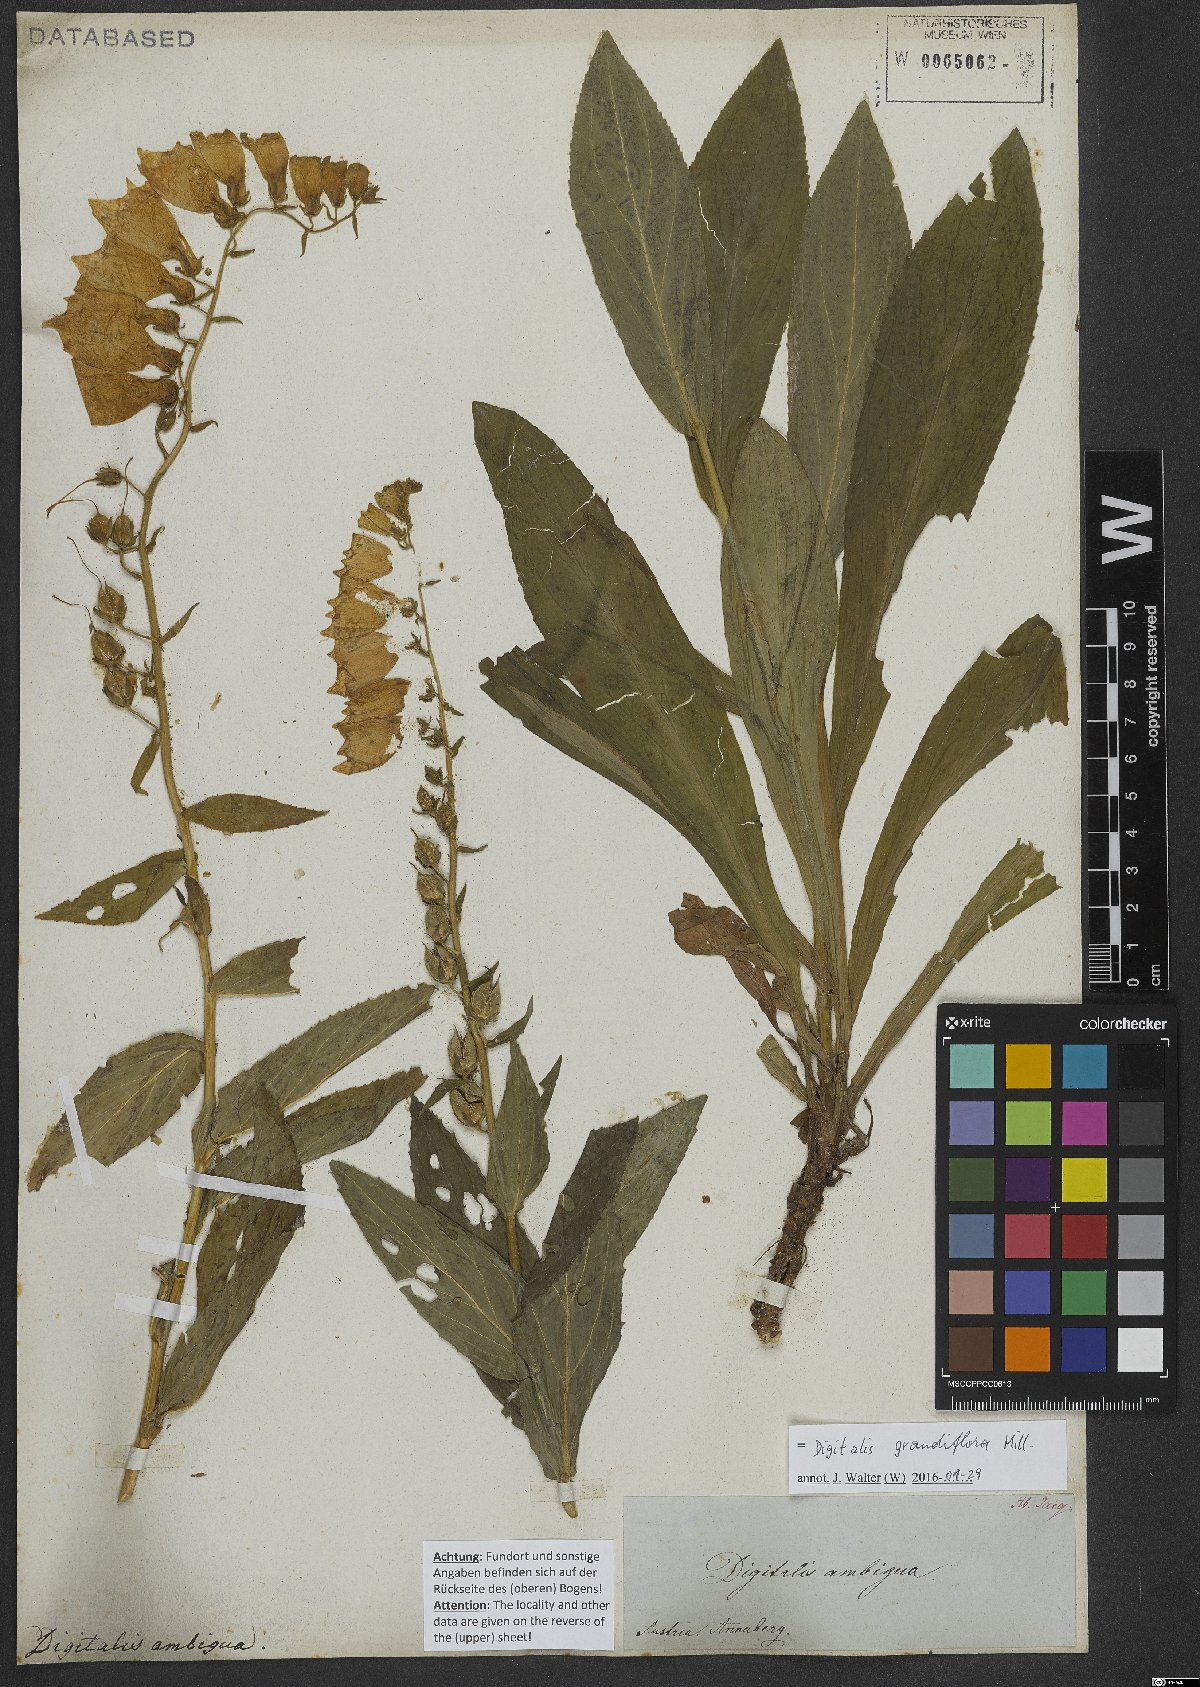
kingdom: Plantae
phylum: Tracheophyta
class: Magnoliopsida
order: Lamiales
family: Plantaginaceae
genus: Digitalis
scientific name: Digitalis grandiflora
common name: Yellow foxglove
